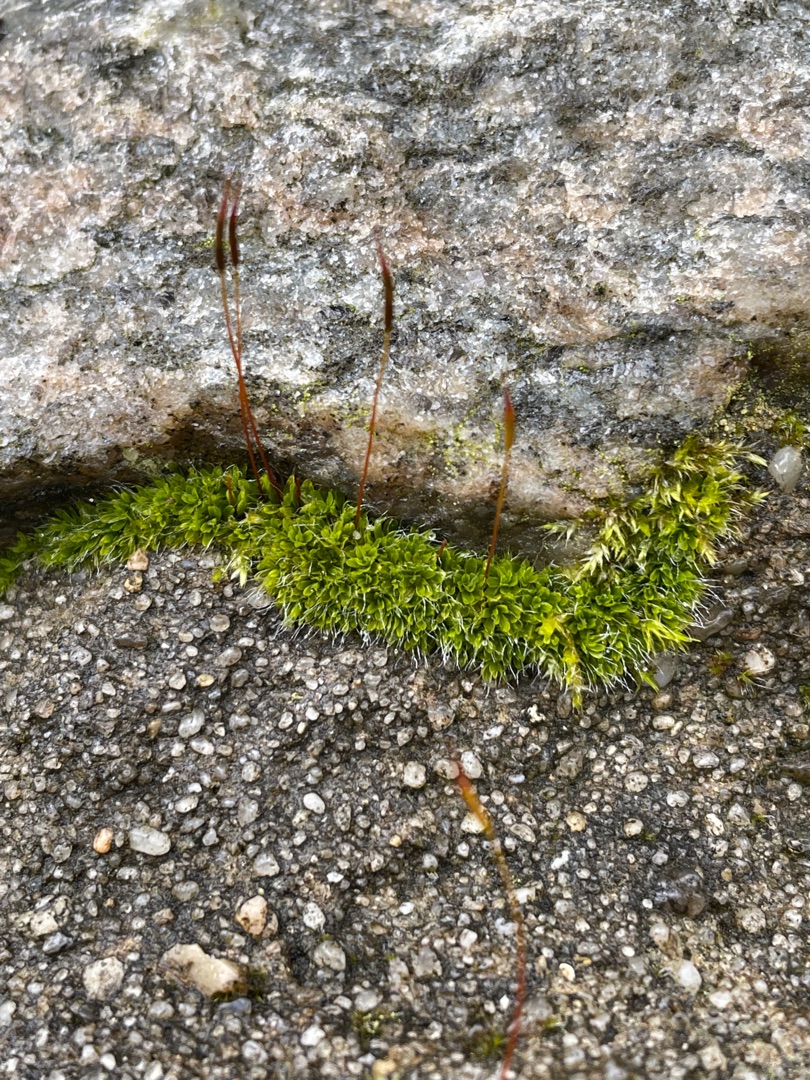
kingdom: Plantae
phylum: Bryophyta
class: Bryopsida
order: Pottiales
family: Pottiaceae
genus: Tortula
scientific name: Tortula muralis
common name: Mur-snotand
